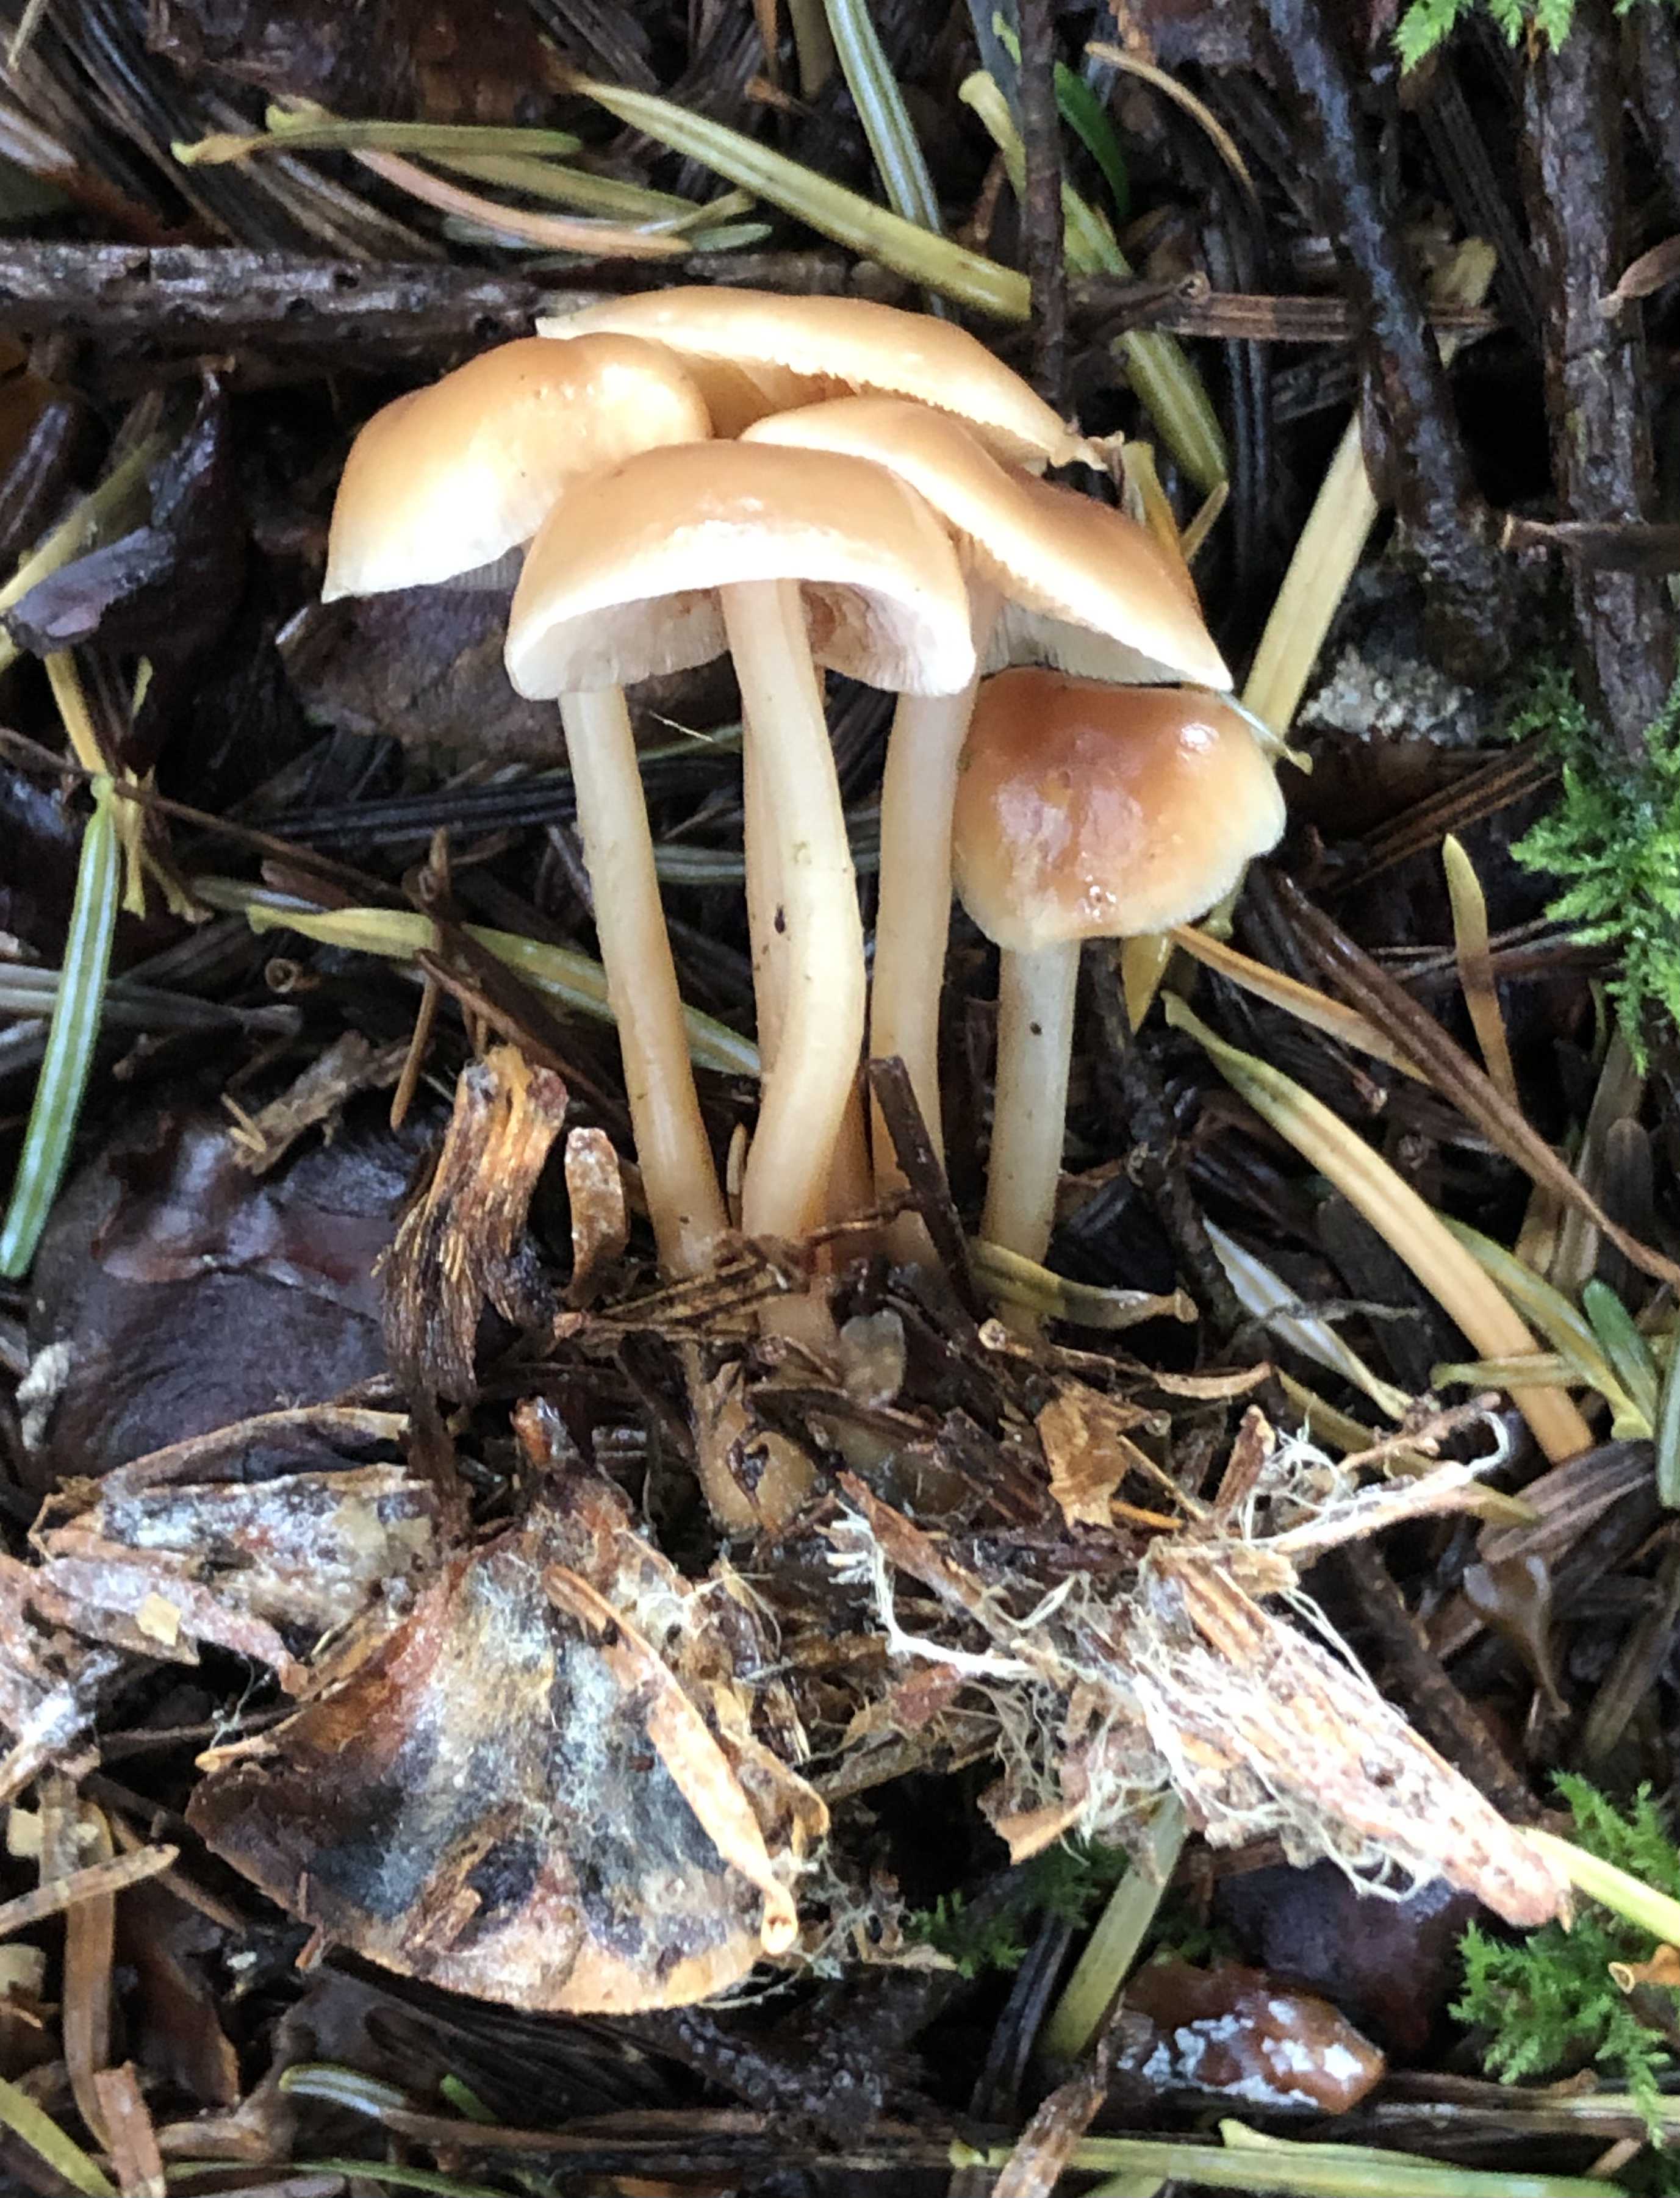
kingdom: Fungi
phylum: Basidiomycota
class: Agaricomycetes
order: Agaricales
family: Omphalotaceae
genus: Gymnopus
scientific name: Gymnopus dryophilus
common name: løv-fladhat
